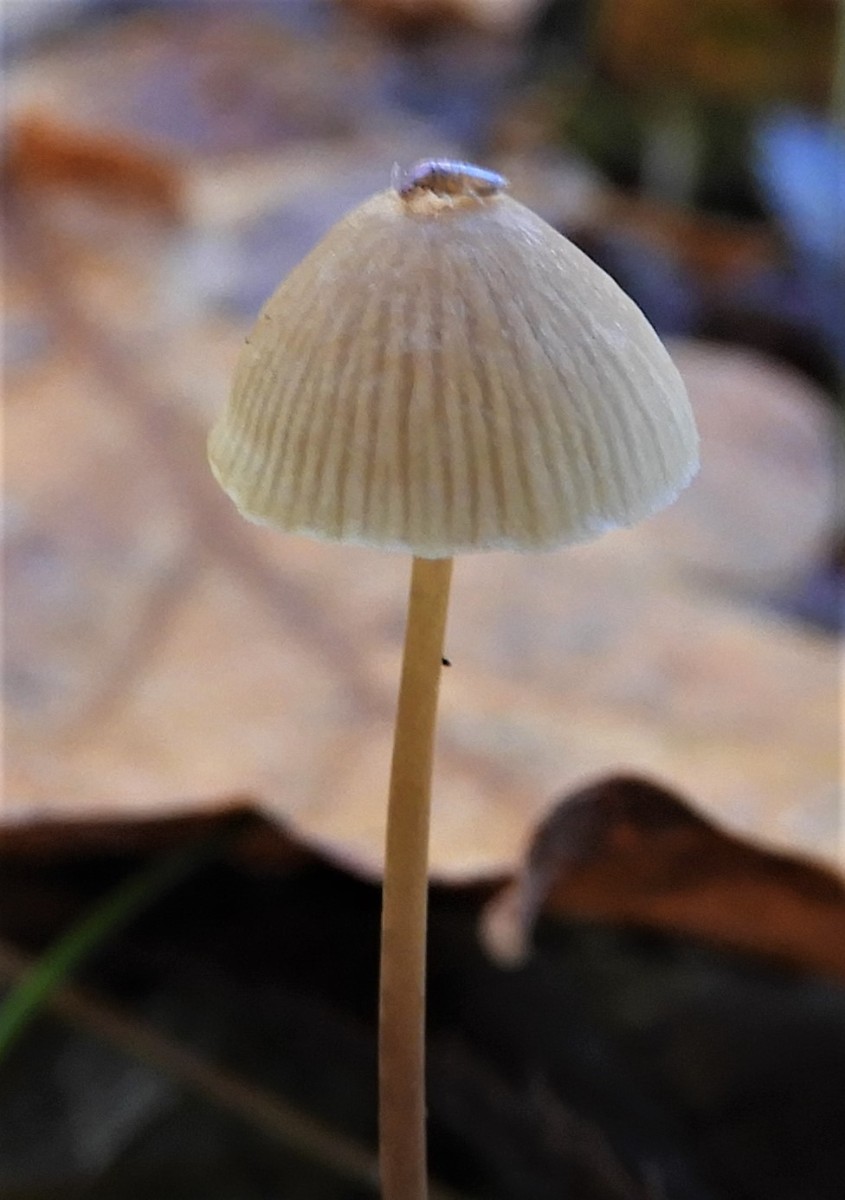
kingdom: Fungi
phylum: Basidiomycota
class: Agaricomycetes
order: Agaricales
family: Mycenaceae
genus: Mycena
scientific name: Mycena
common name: huesvamp
